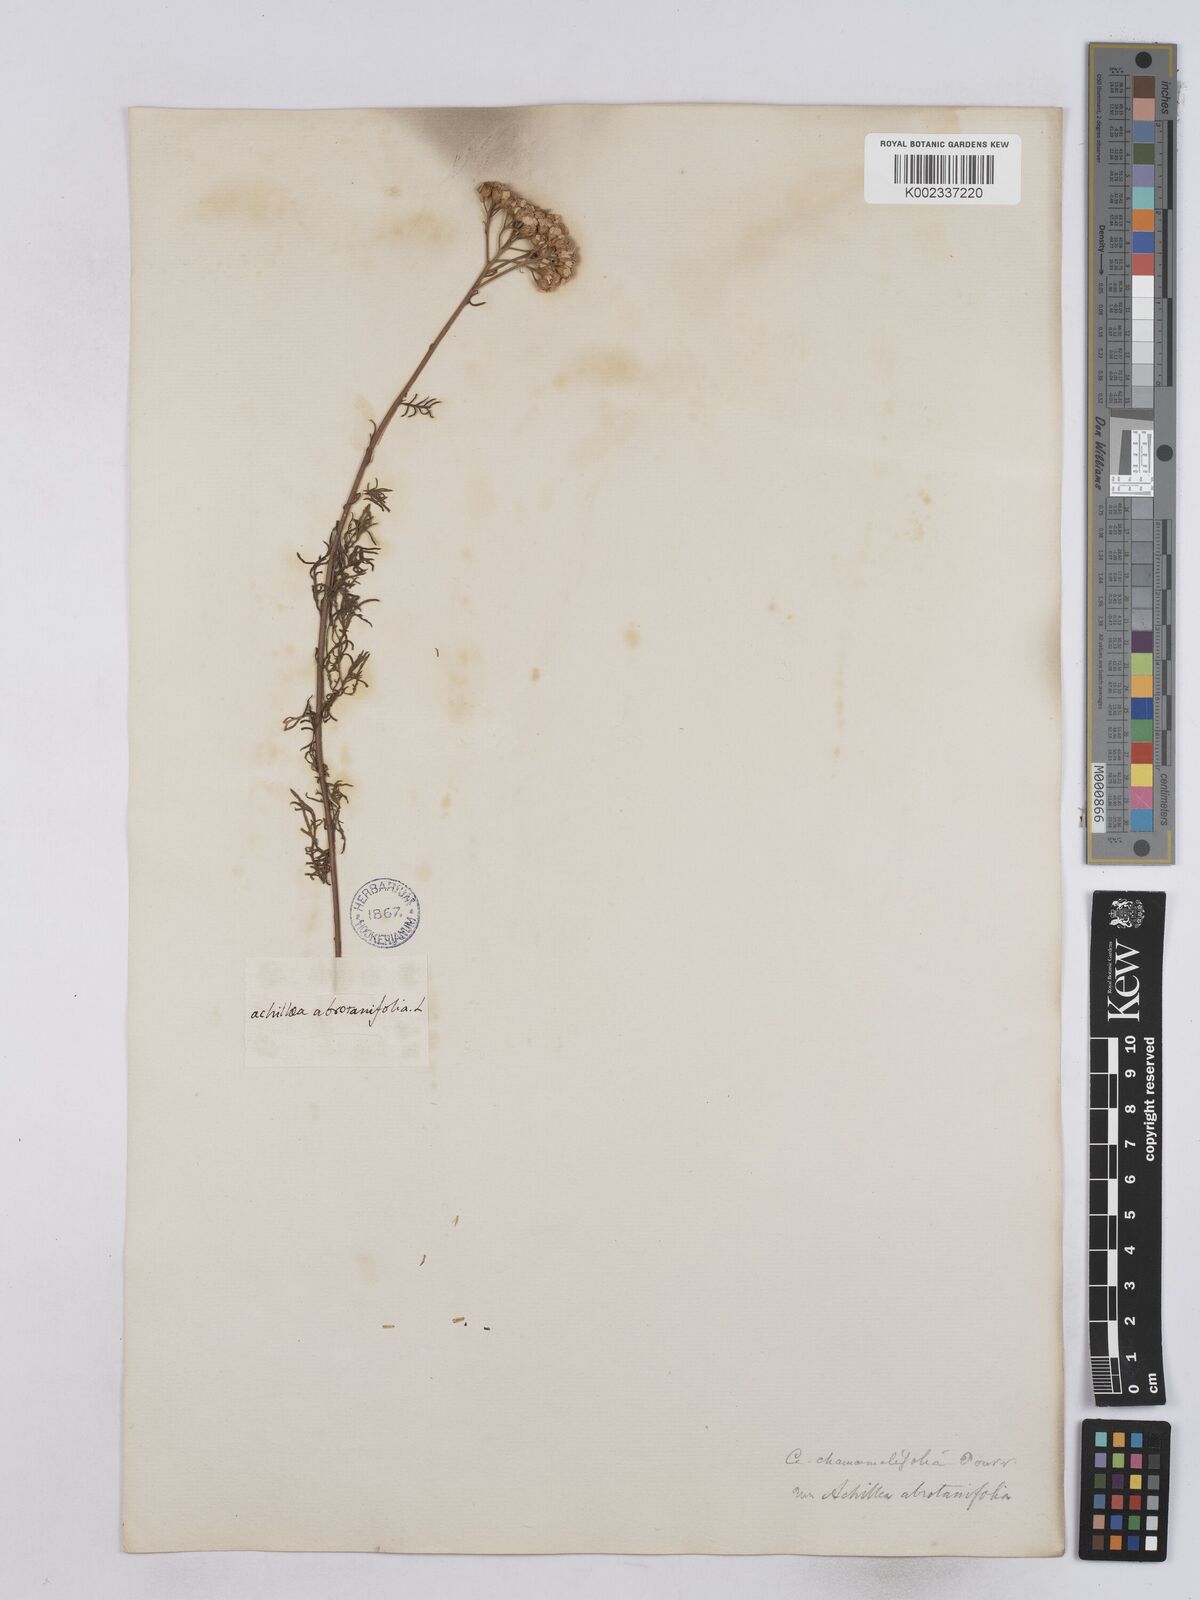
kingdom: Plantae
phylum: Tracheophyta
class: Magnoliopsida
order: Asterales
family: Asteraceae
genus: Achillea
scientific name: Achillea chamaemelifolia
